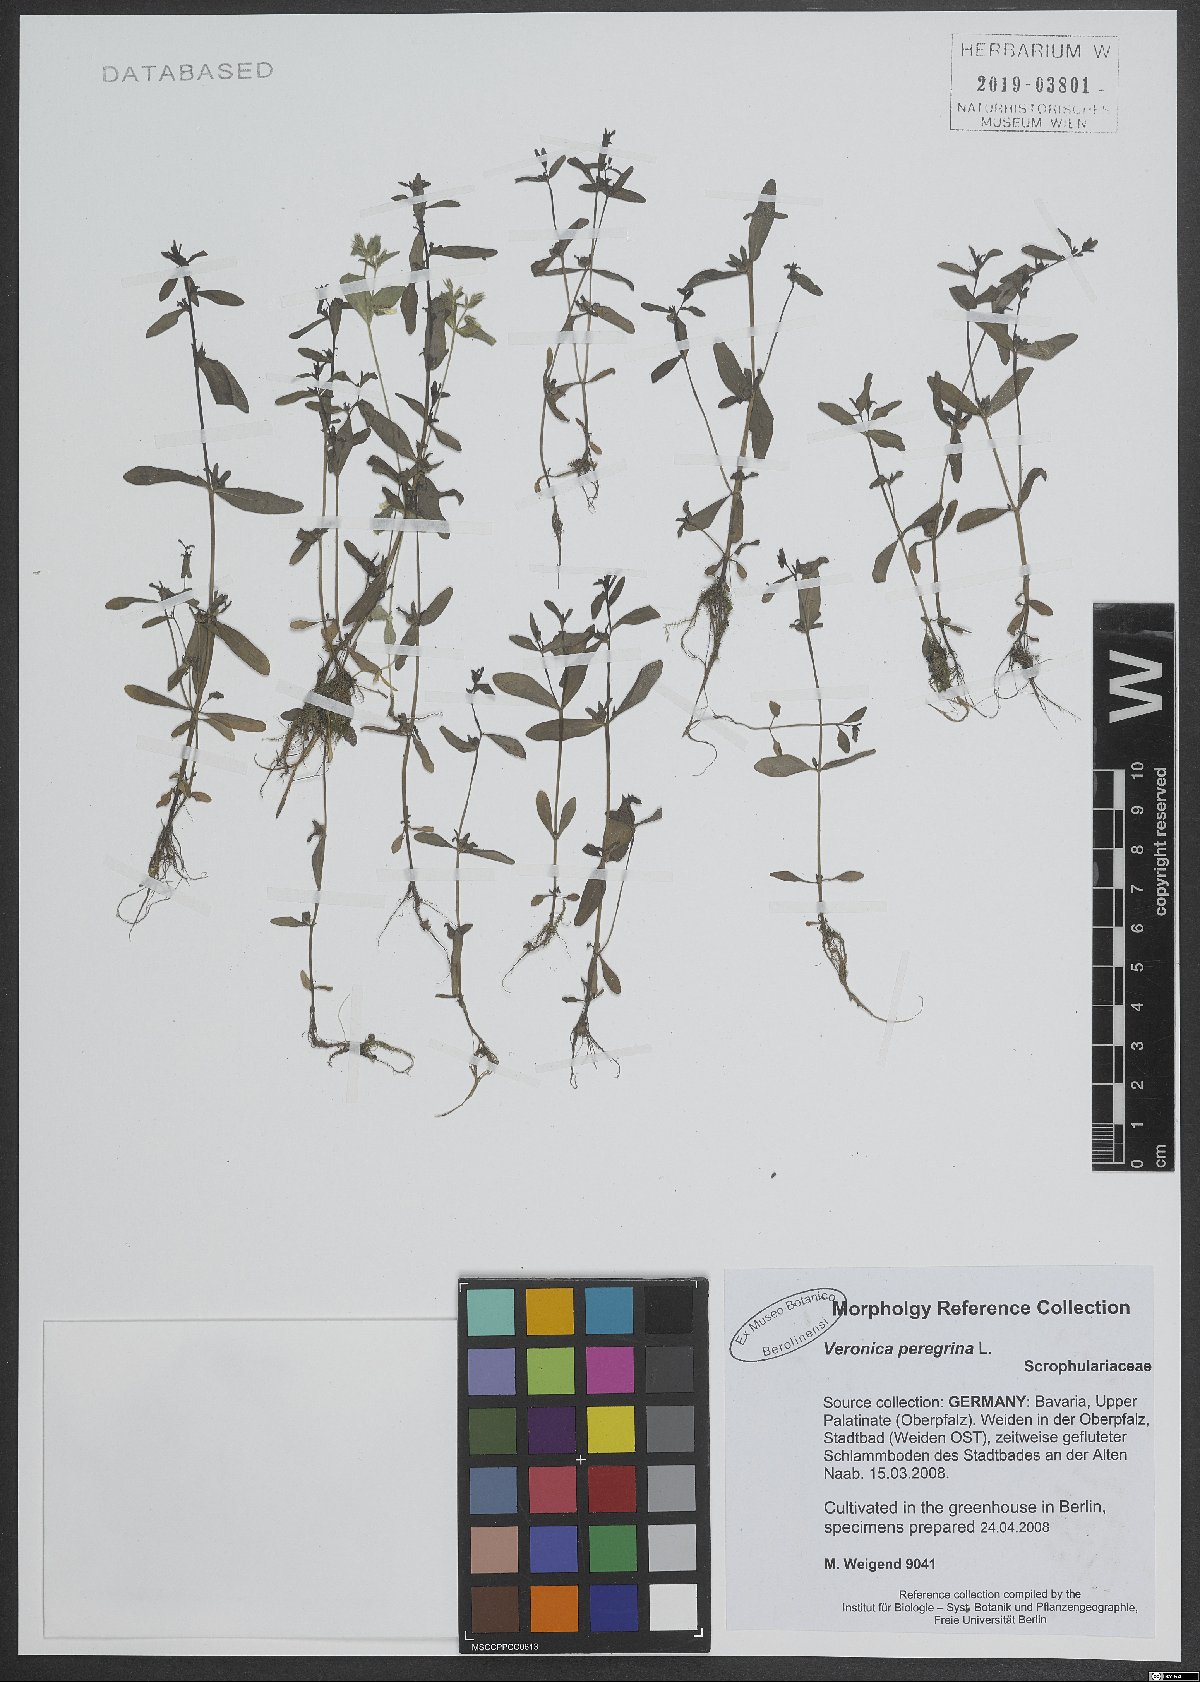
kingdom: Plantae
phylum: Tracheophyta
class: Magnoliopsida
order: Lamiales
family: Plantaginaceae
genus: Veronica
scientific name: Veronica peregrina
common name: Neckweed
